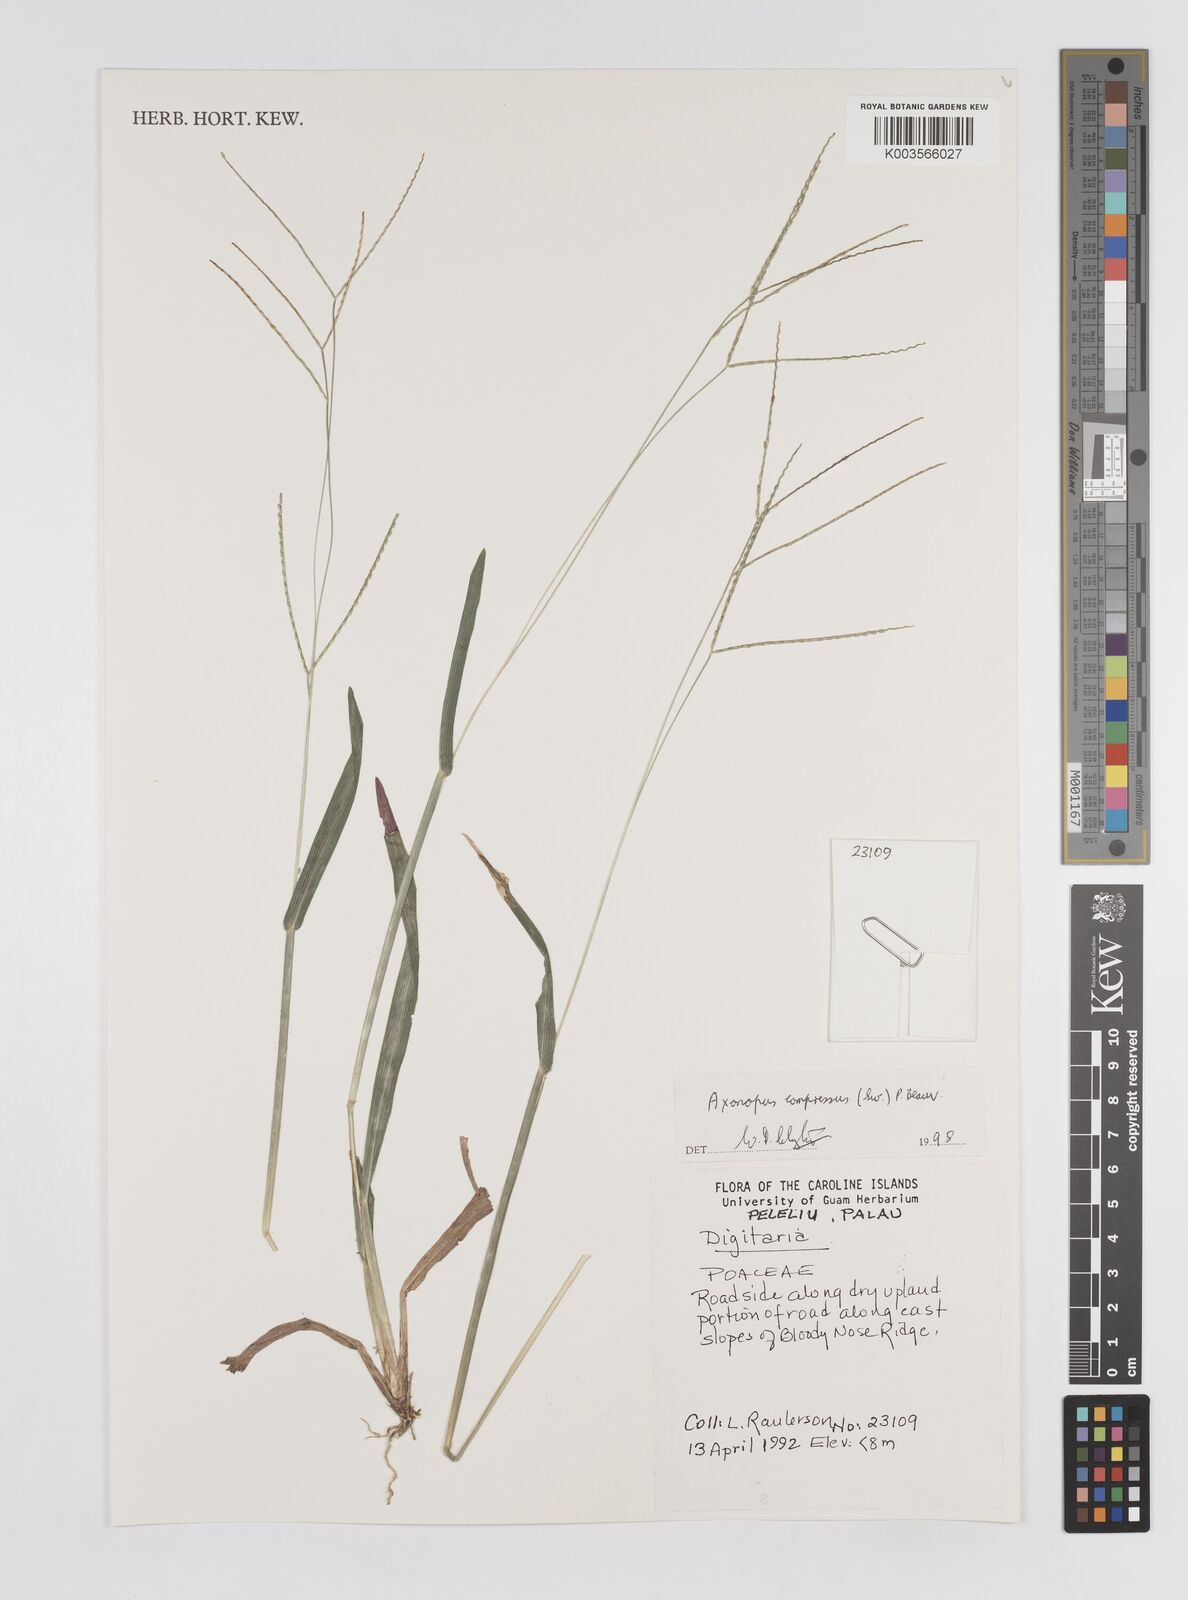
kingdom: Plantae
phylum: Tracheophyta
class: Liliopsida
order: Poales
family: Poaceae
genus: Axonopus
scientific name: Axonopus compressus
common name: American carpet grass
